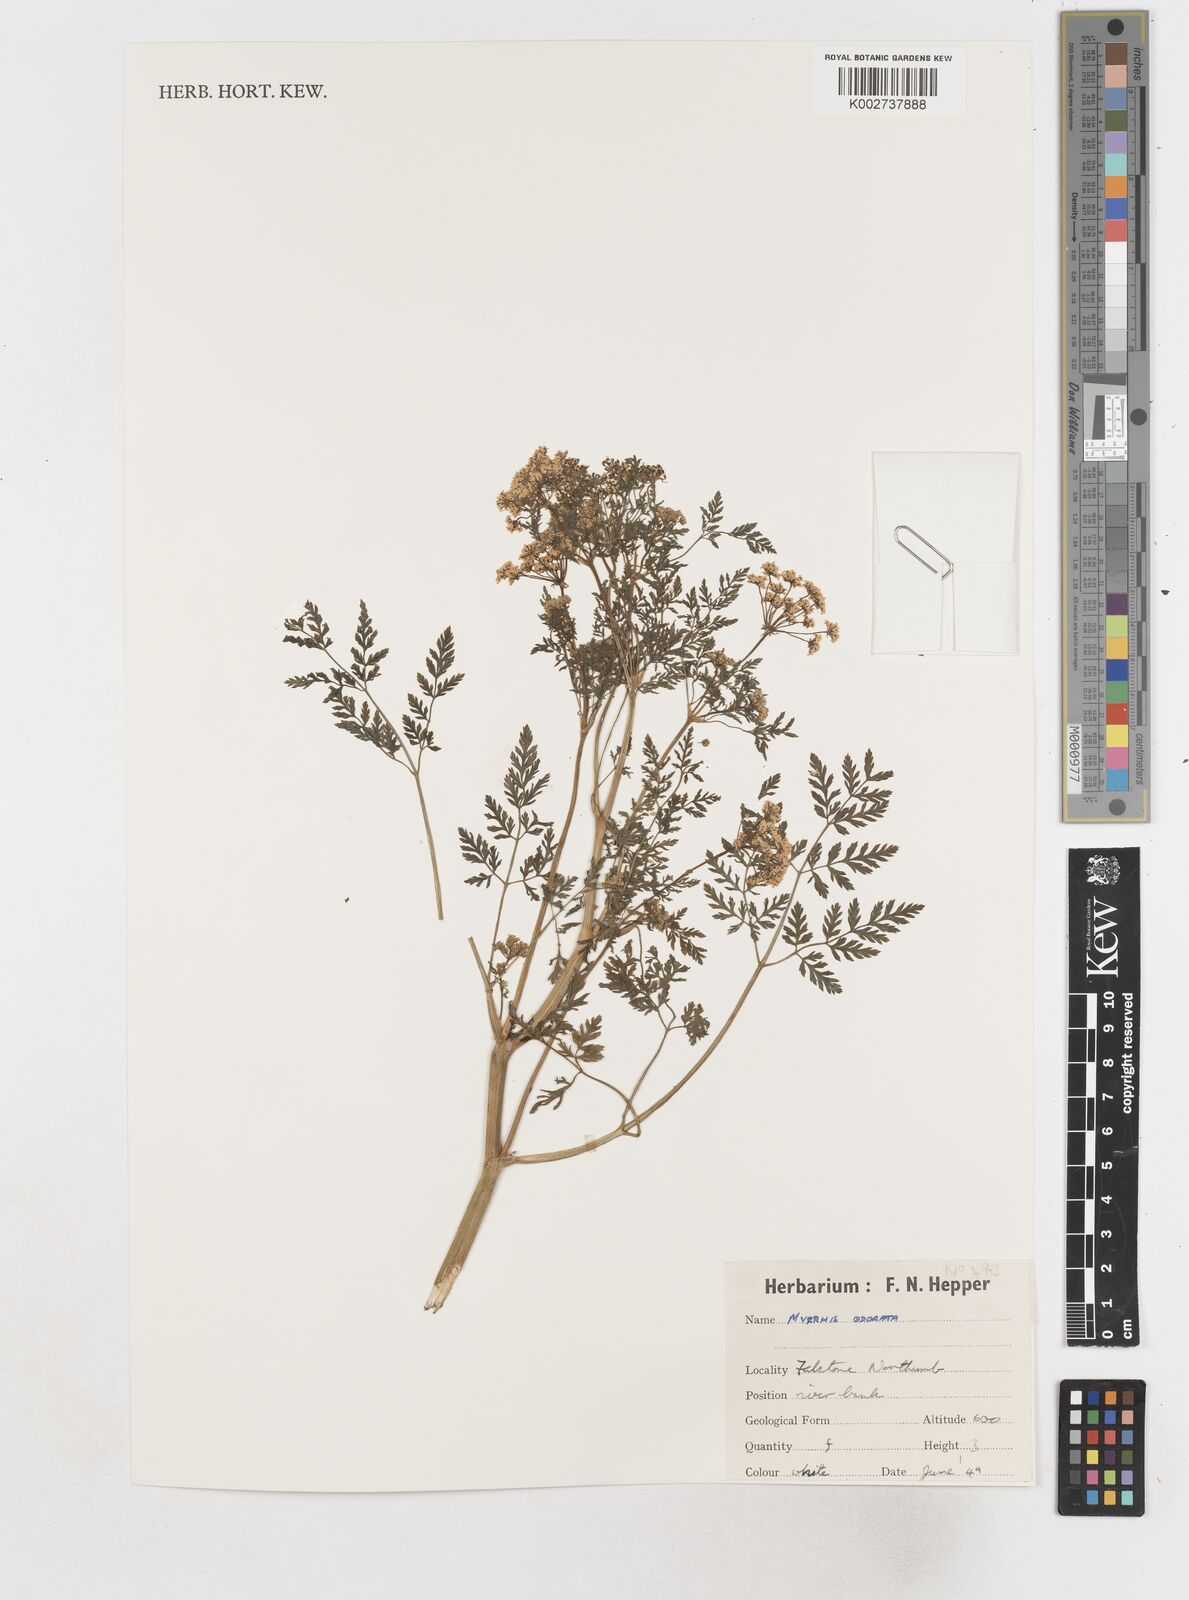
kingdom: Plantae
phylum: Tracheophyta
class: Magnoliopsida
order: Apiales
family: Apiaceae
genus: Myrrhis
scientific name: Myrrhis
